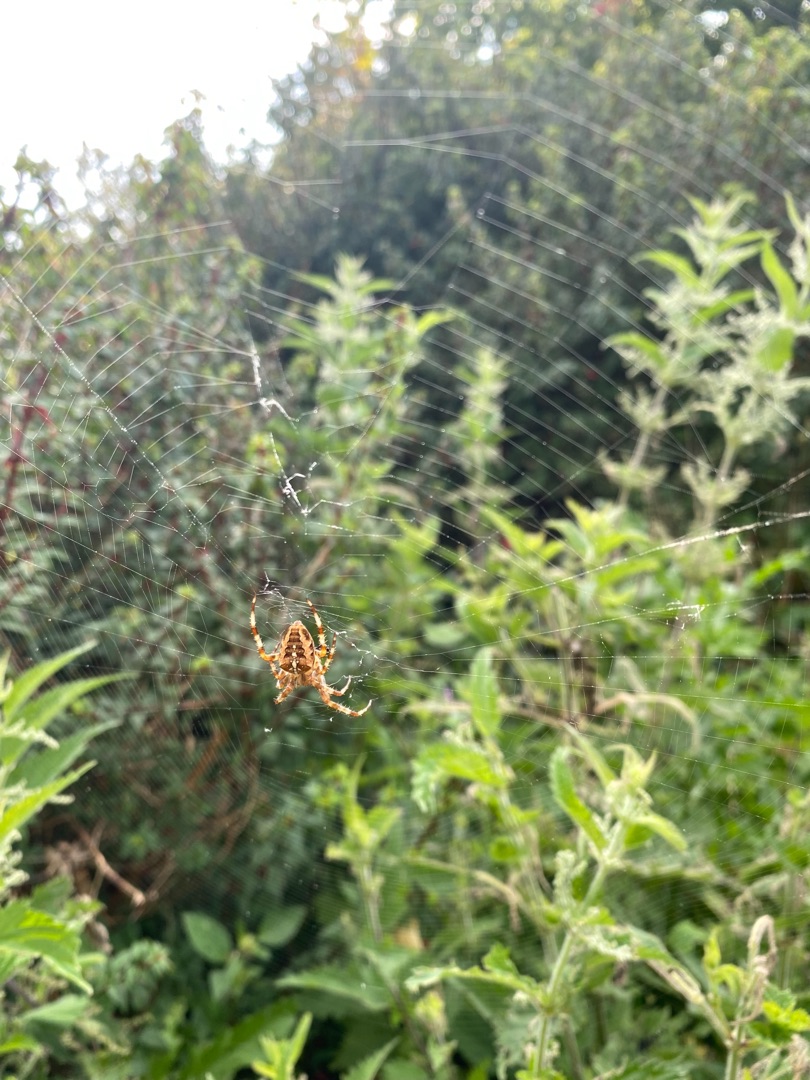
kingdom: Animalia
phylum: Arthropoda
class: Arachnida
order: Araneae
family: Araneidae
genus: Araneus
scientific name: Araneus diadematus
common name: Korsedderkop
